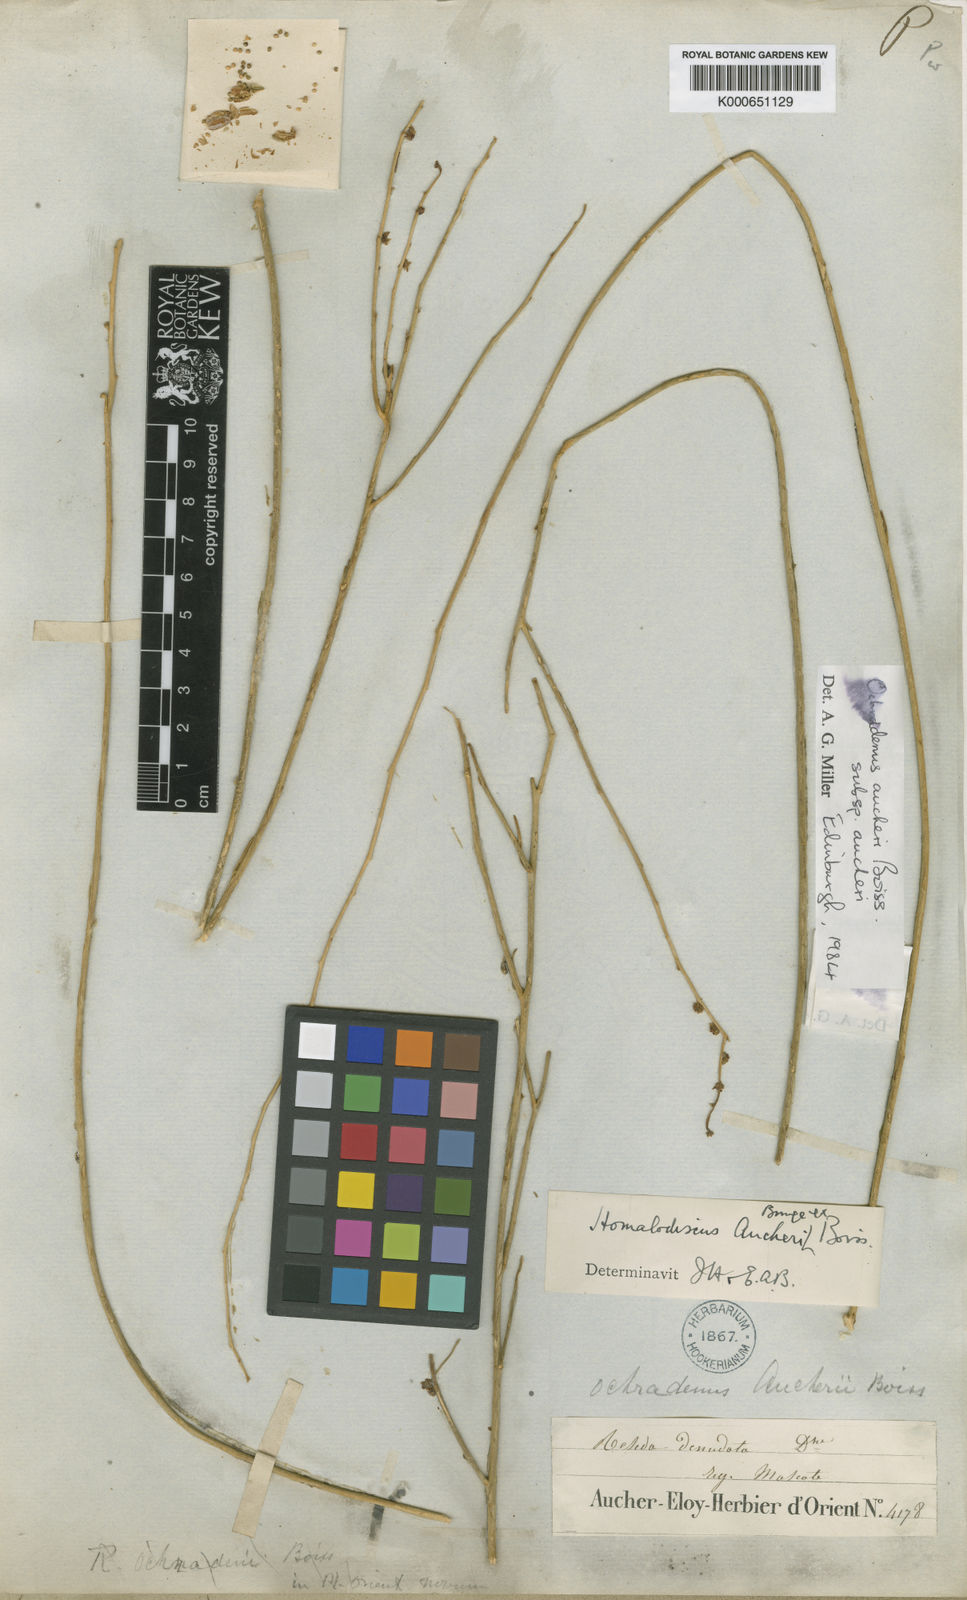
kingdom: Plantae
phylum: Tracheophyta
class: Magnoliopsida
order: Brassicales
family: Resedaceae
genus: Ochradiscus
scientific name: Ochradiscus aucheri
